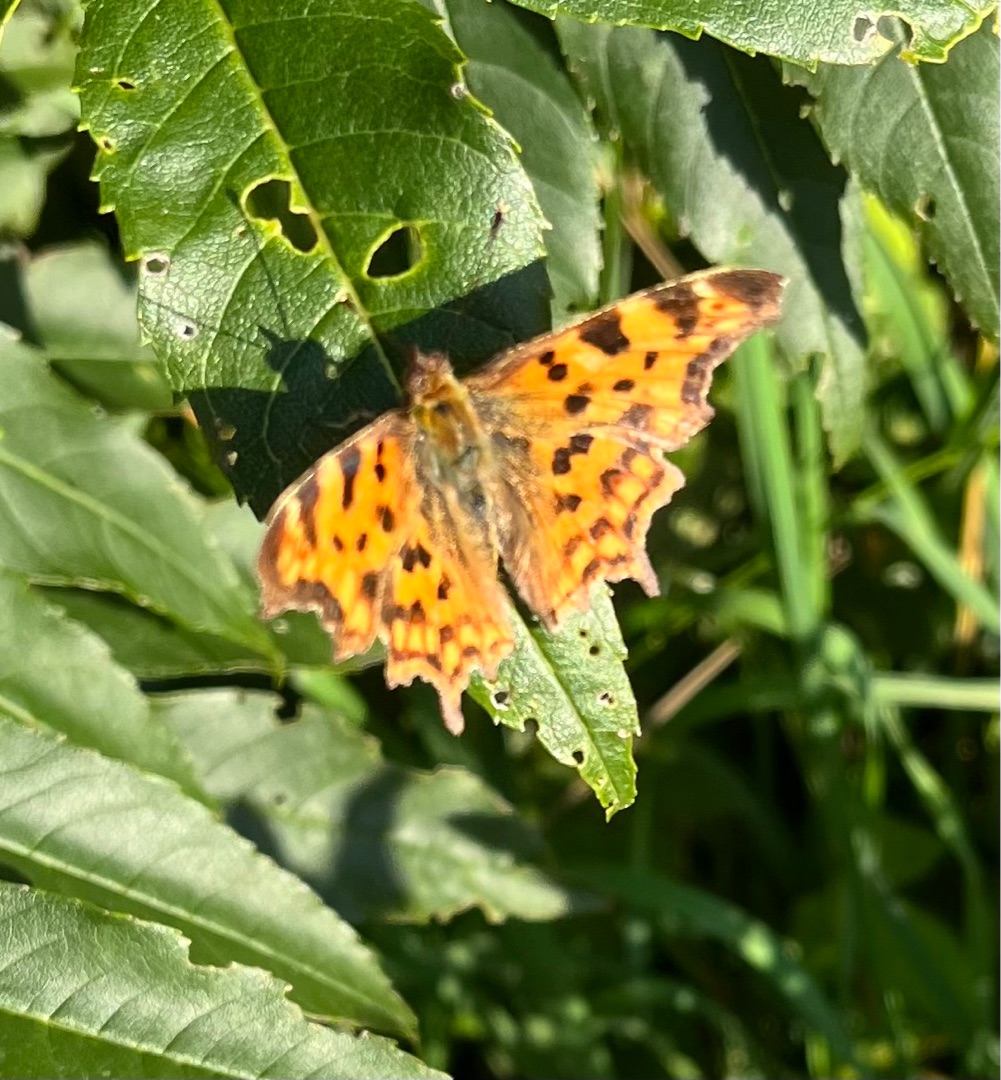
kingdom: Animalia
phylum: Arthropoda
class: Insecta
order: Lepidoptera
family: Nymphalidae
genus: Polygonia
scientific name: Polygonia c-album
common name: Det hvide C
